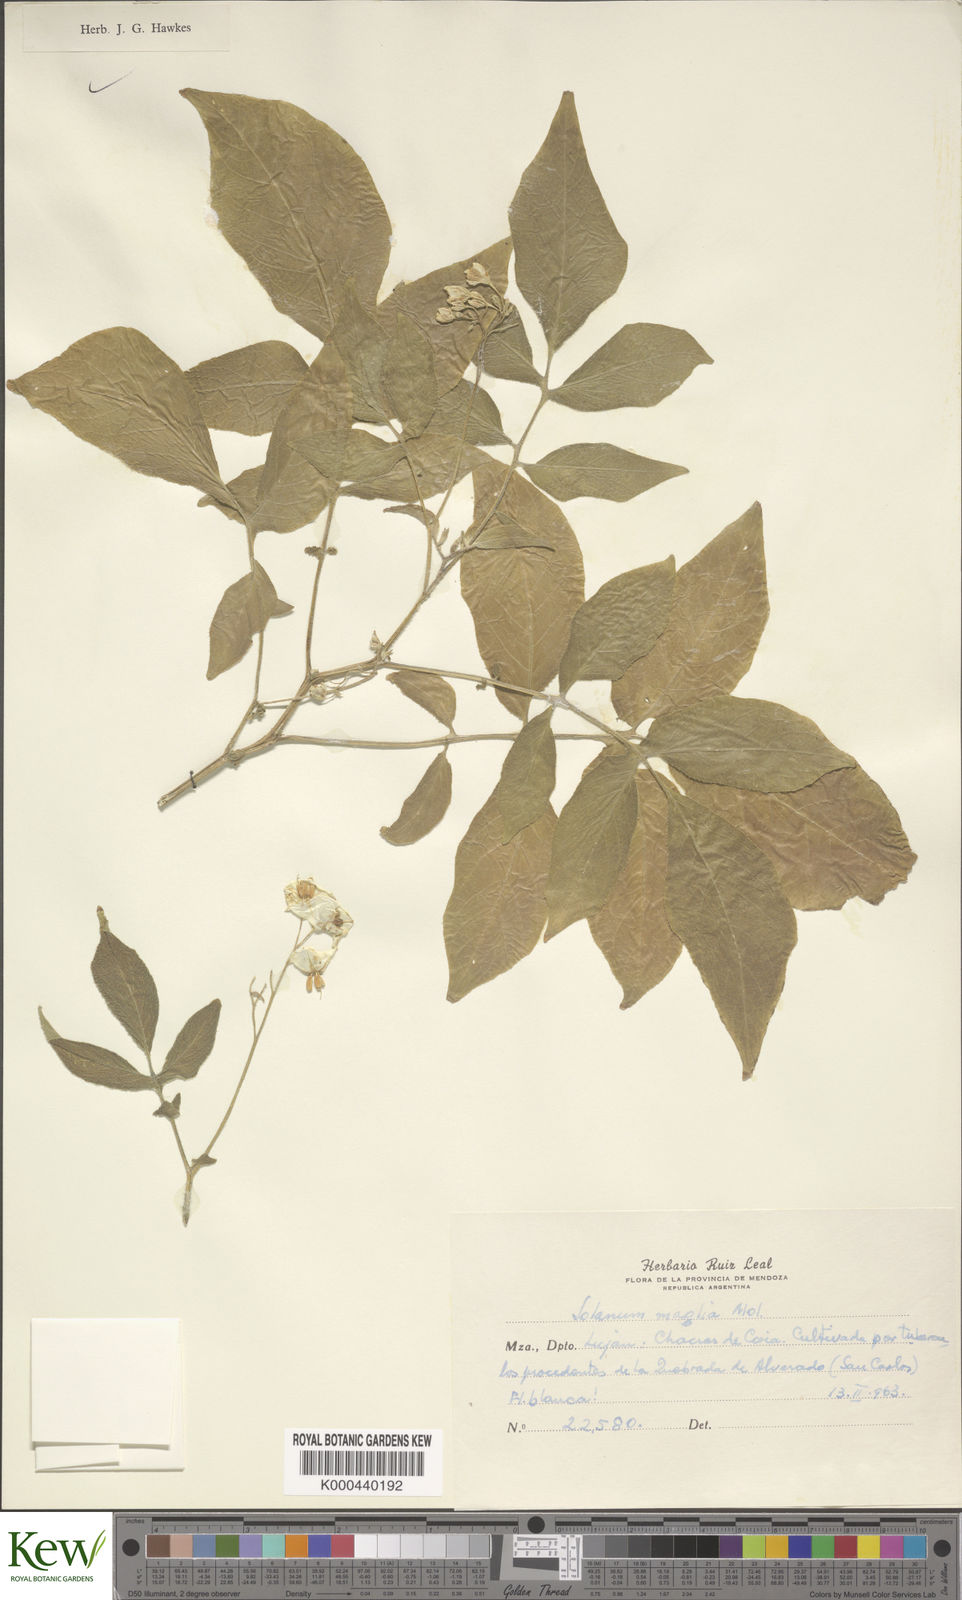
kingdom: Plantae
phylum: Tracheophyta
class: Magnoliopsida
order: Solanales
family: Solanaceae
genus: Solanum
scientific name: Solanum maglia
